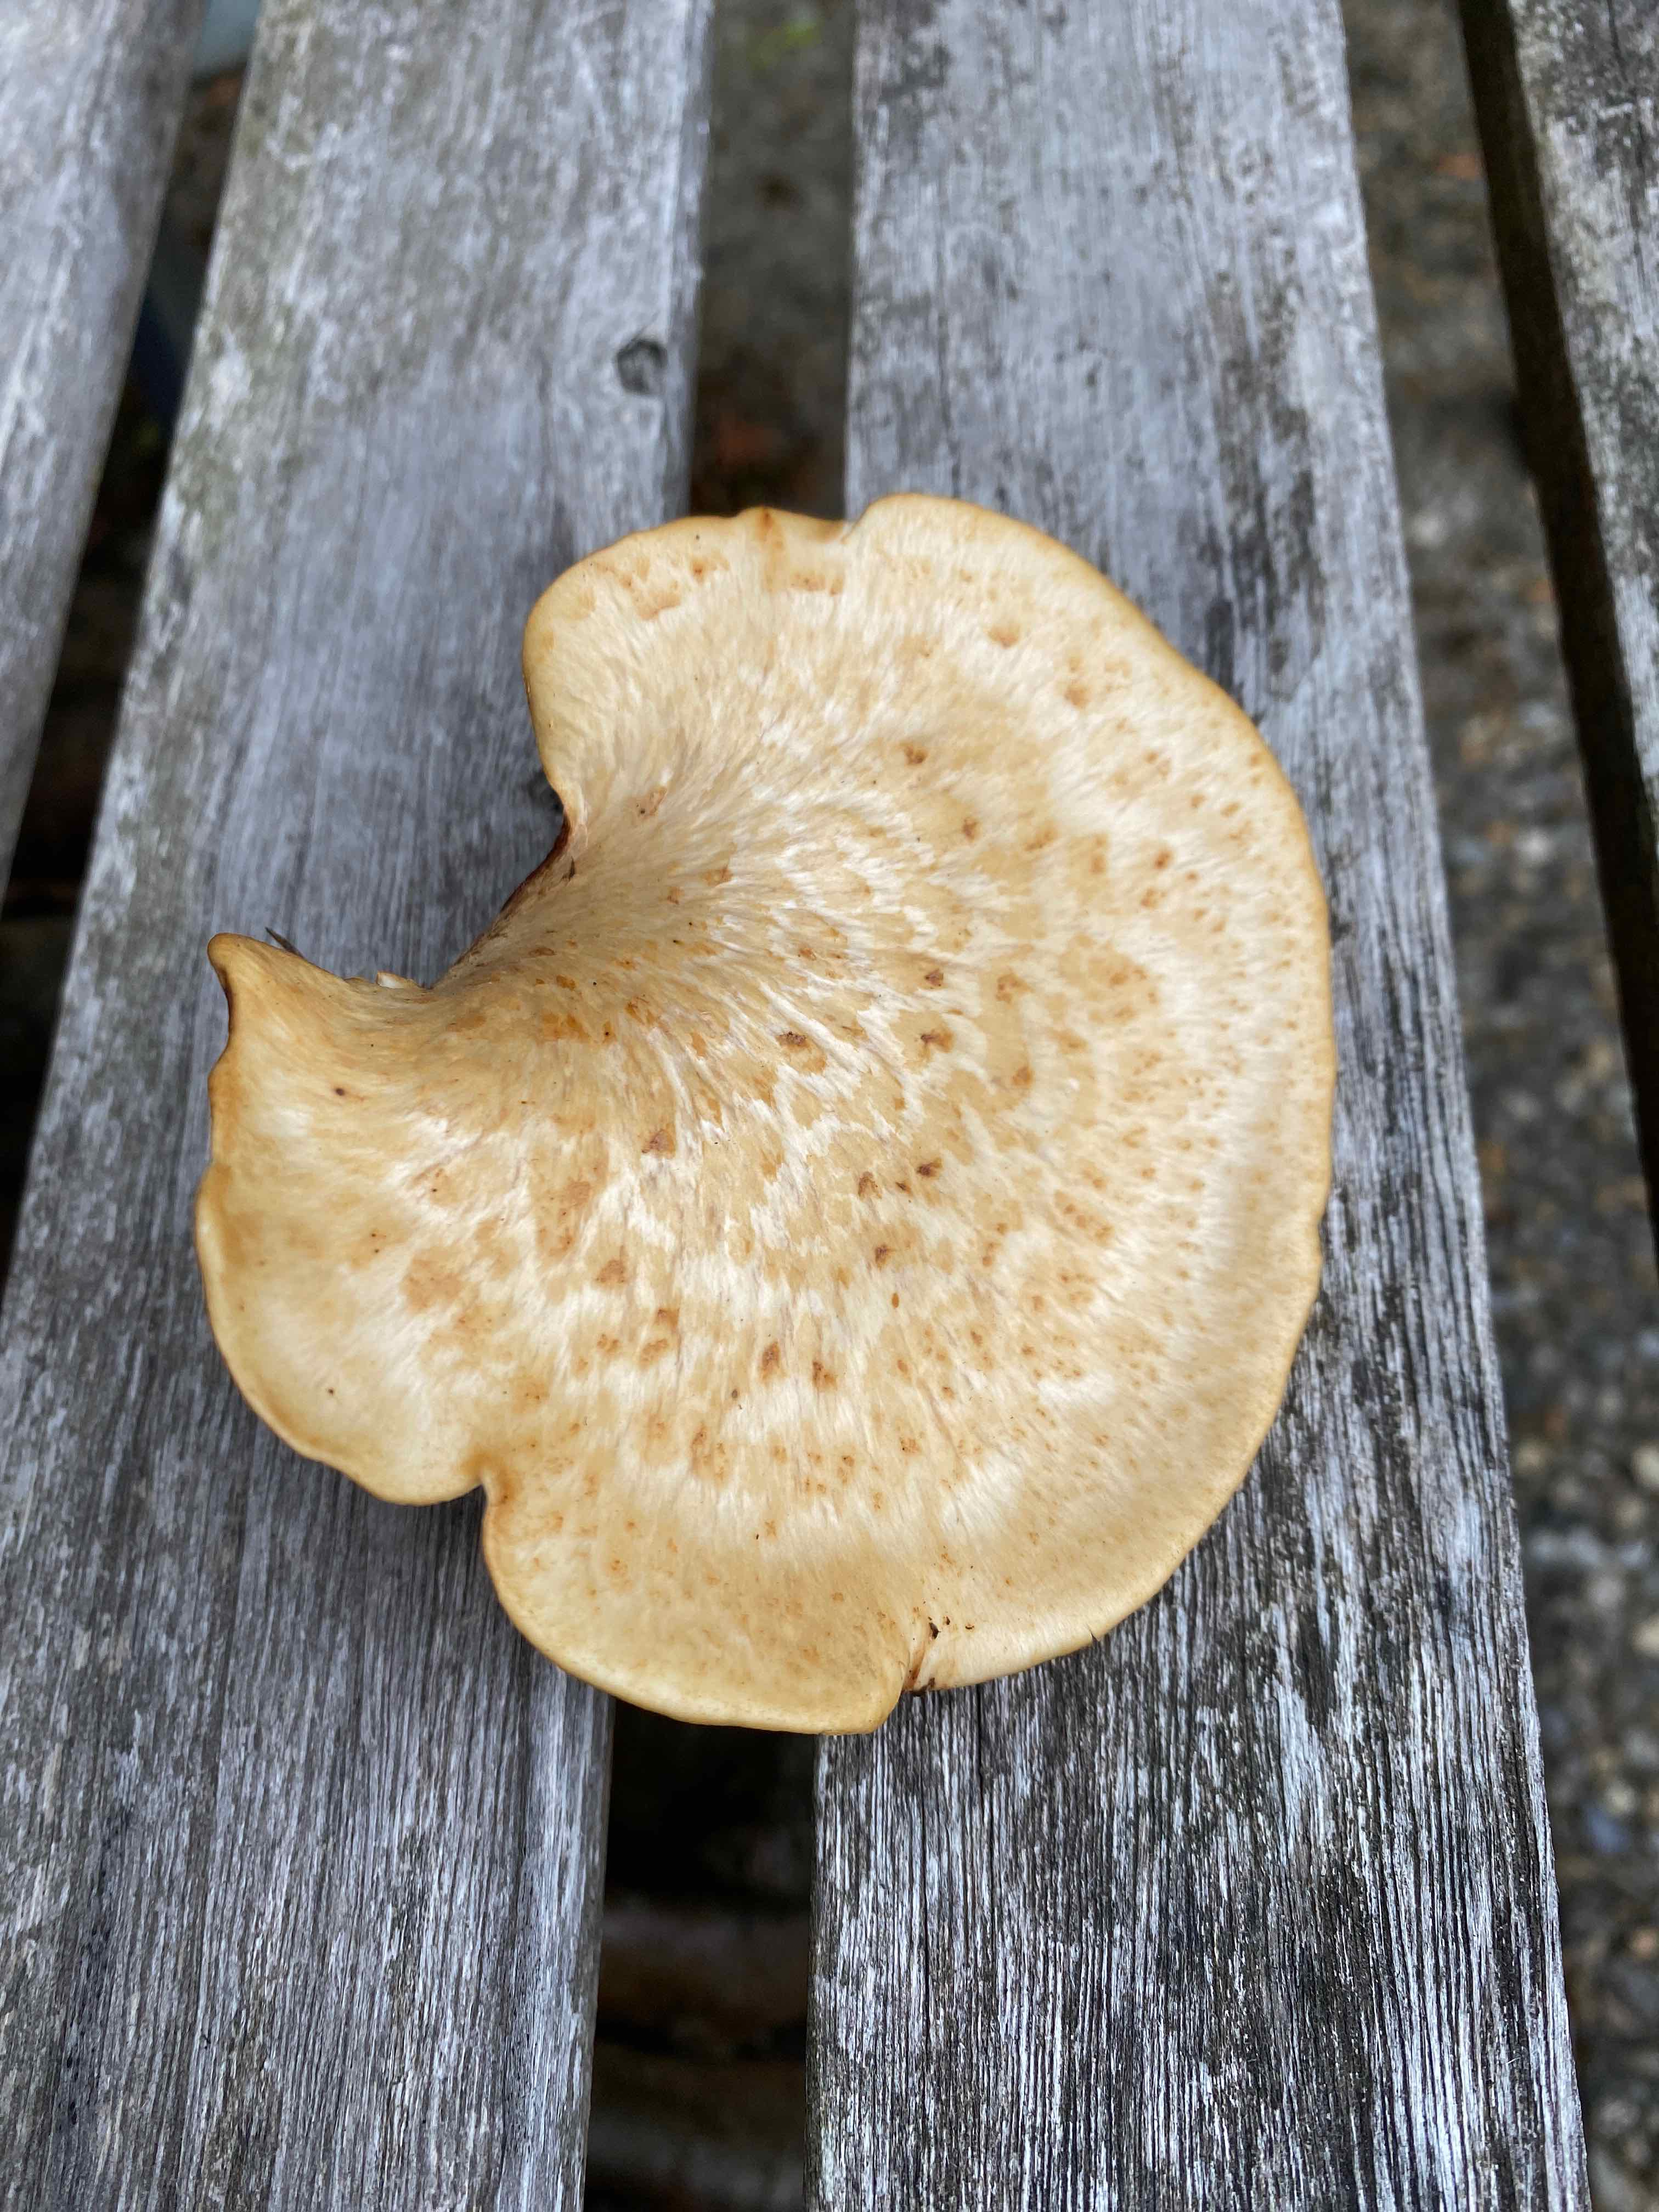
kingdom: Fungi
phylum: Basidiomycota
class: Agaricomycetes
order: Polyporales
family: Polyporaceae
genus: Cerioporus
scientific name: Cerioporus squamosus
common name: skællet stilkporesvamp
